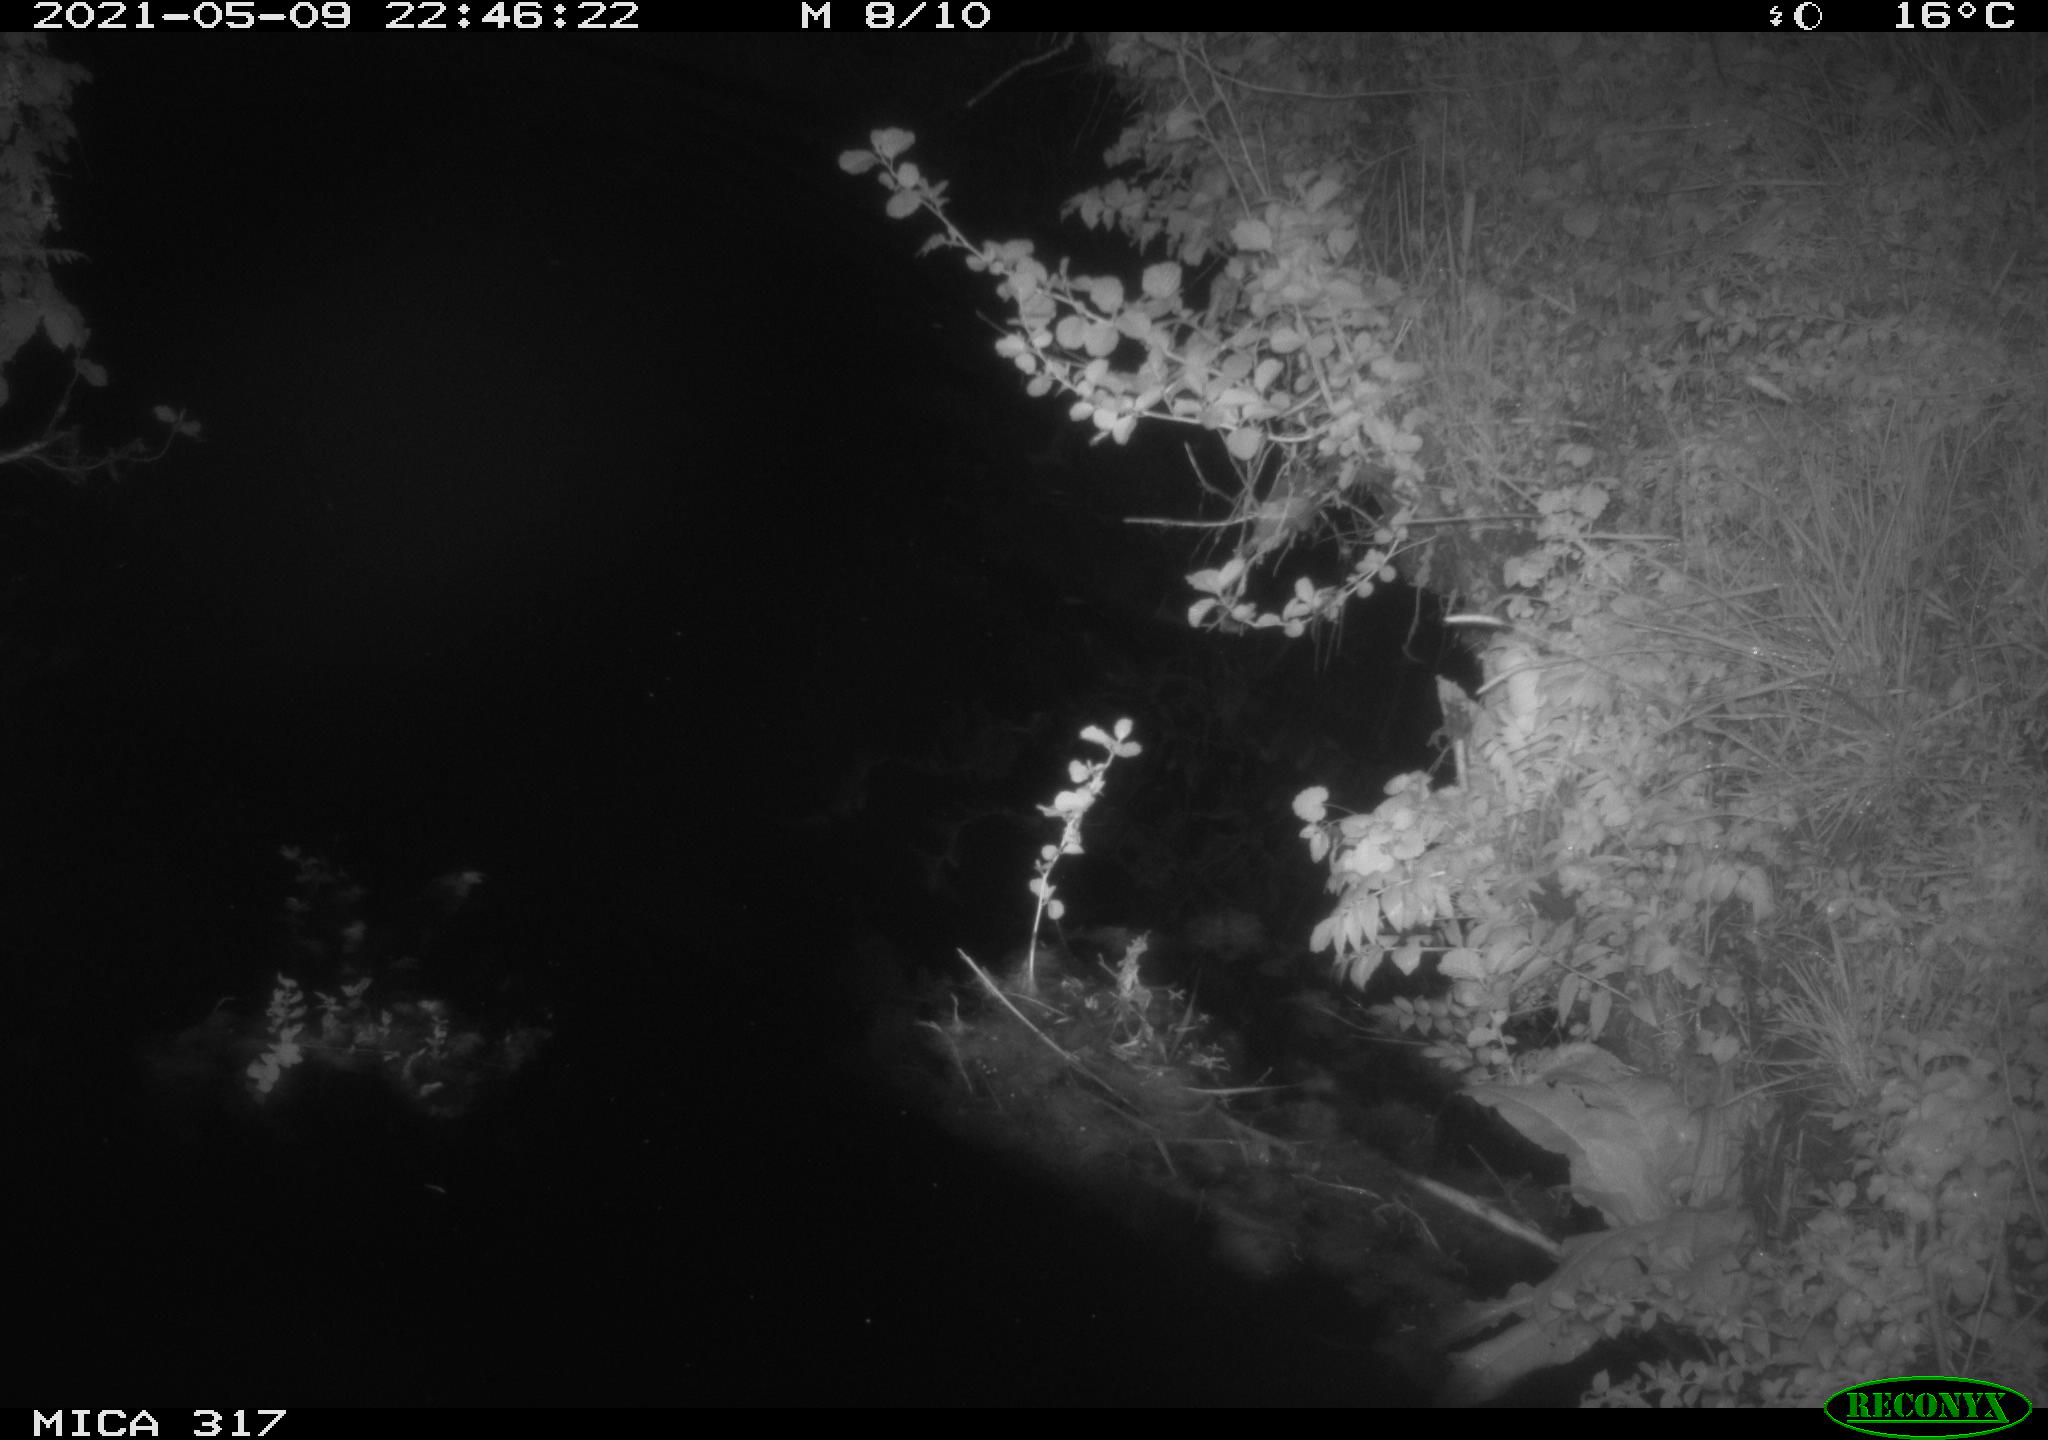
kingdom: Animalia
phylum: Chordata
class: Aves
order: Anseriformes
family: Anatidae
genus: Anas
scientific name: Anas
